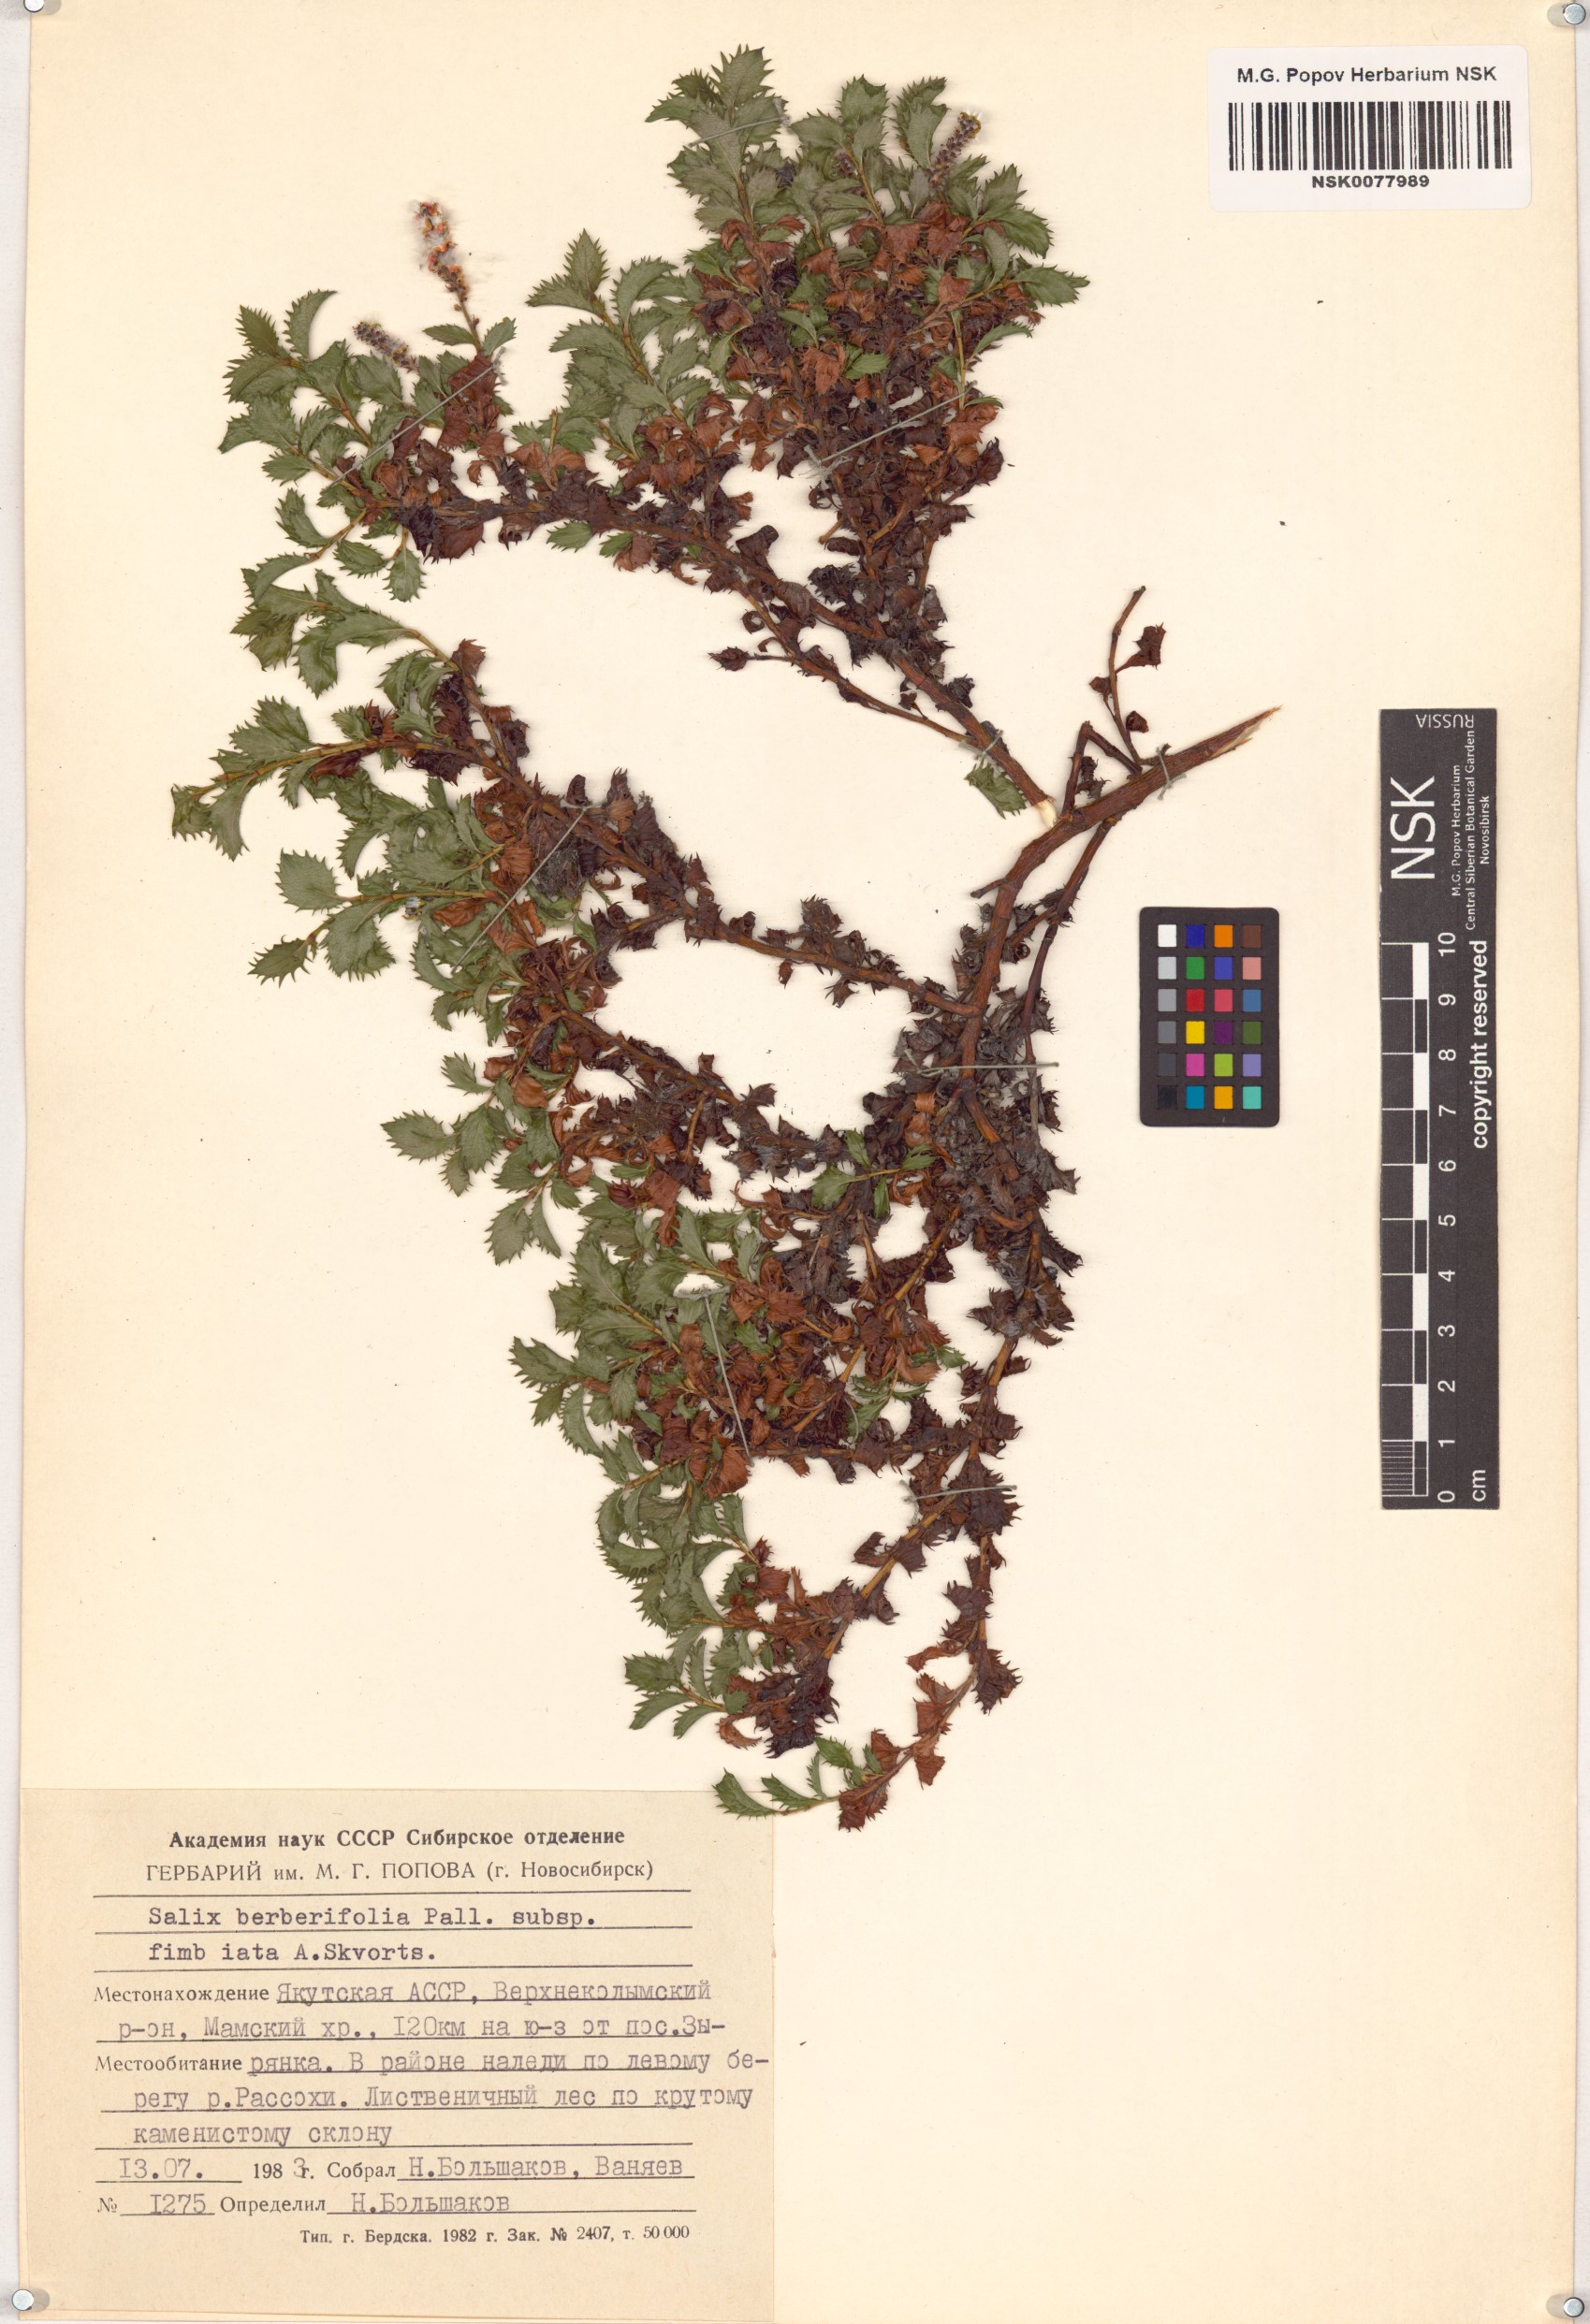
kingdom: Plantae
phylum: Tracheophyta
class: Magnoliopsida
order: Malpighiales
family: Salicaceae
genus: Salix
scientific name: Salix berberifolia
